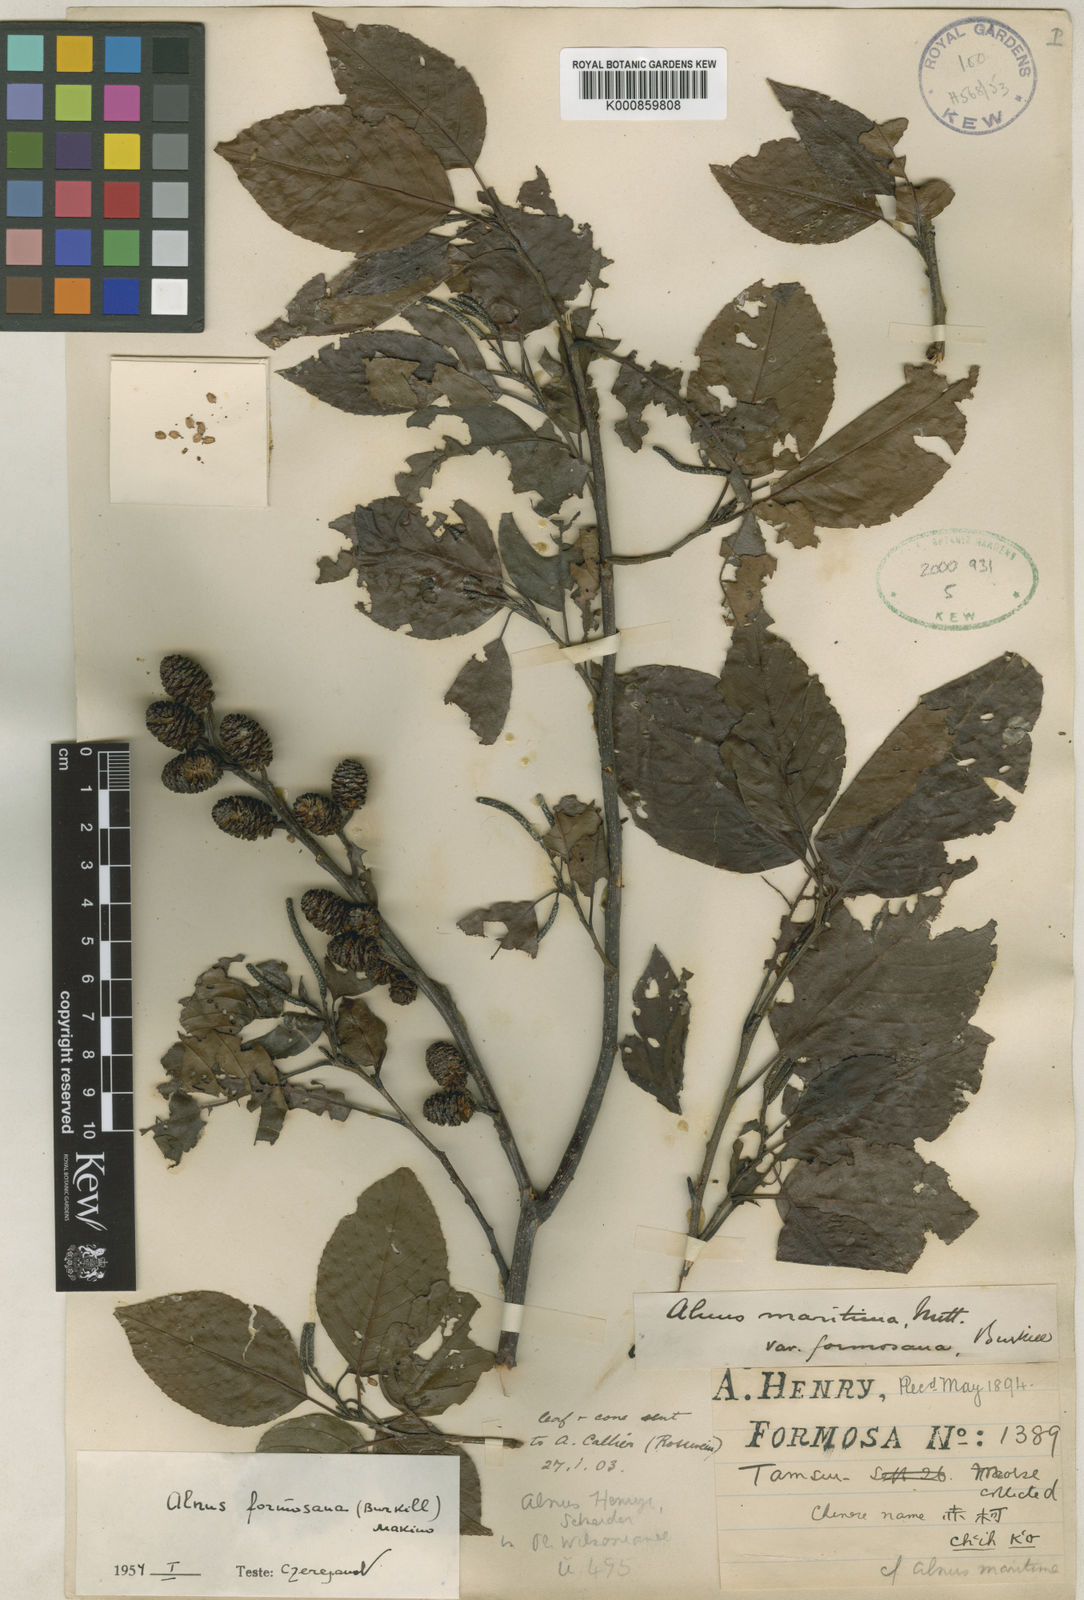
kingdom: Plantae
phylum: Tracheophyta
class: Magnoliopsida
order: Fagales
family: Betulaceae
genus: Alnus
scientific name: Alnus formosana
